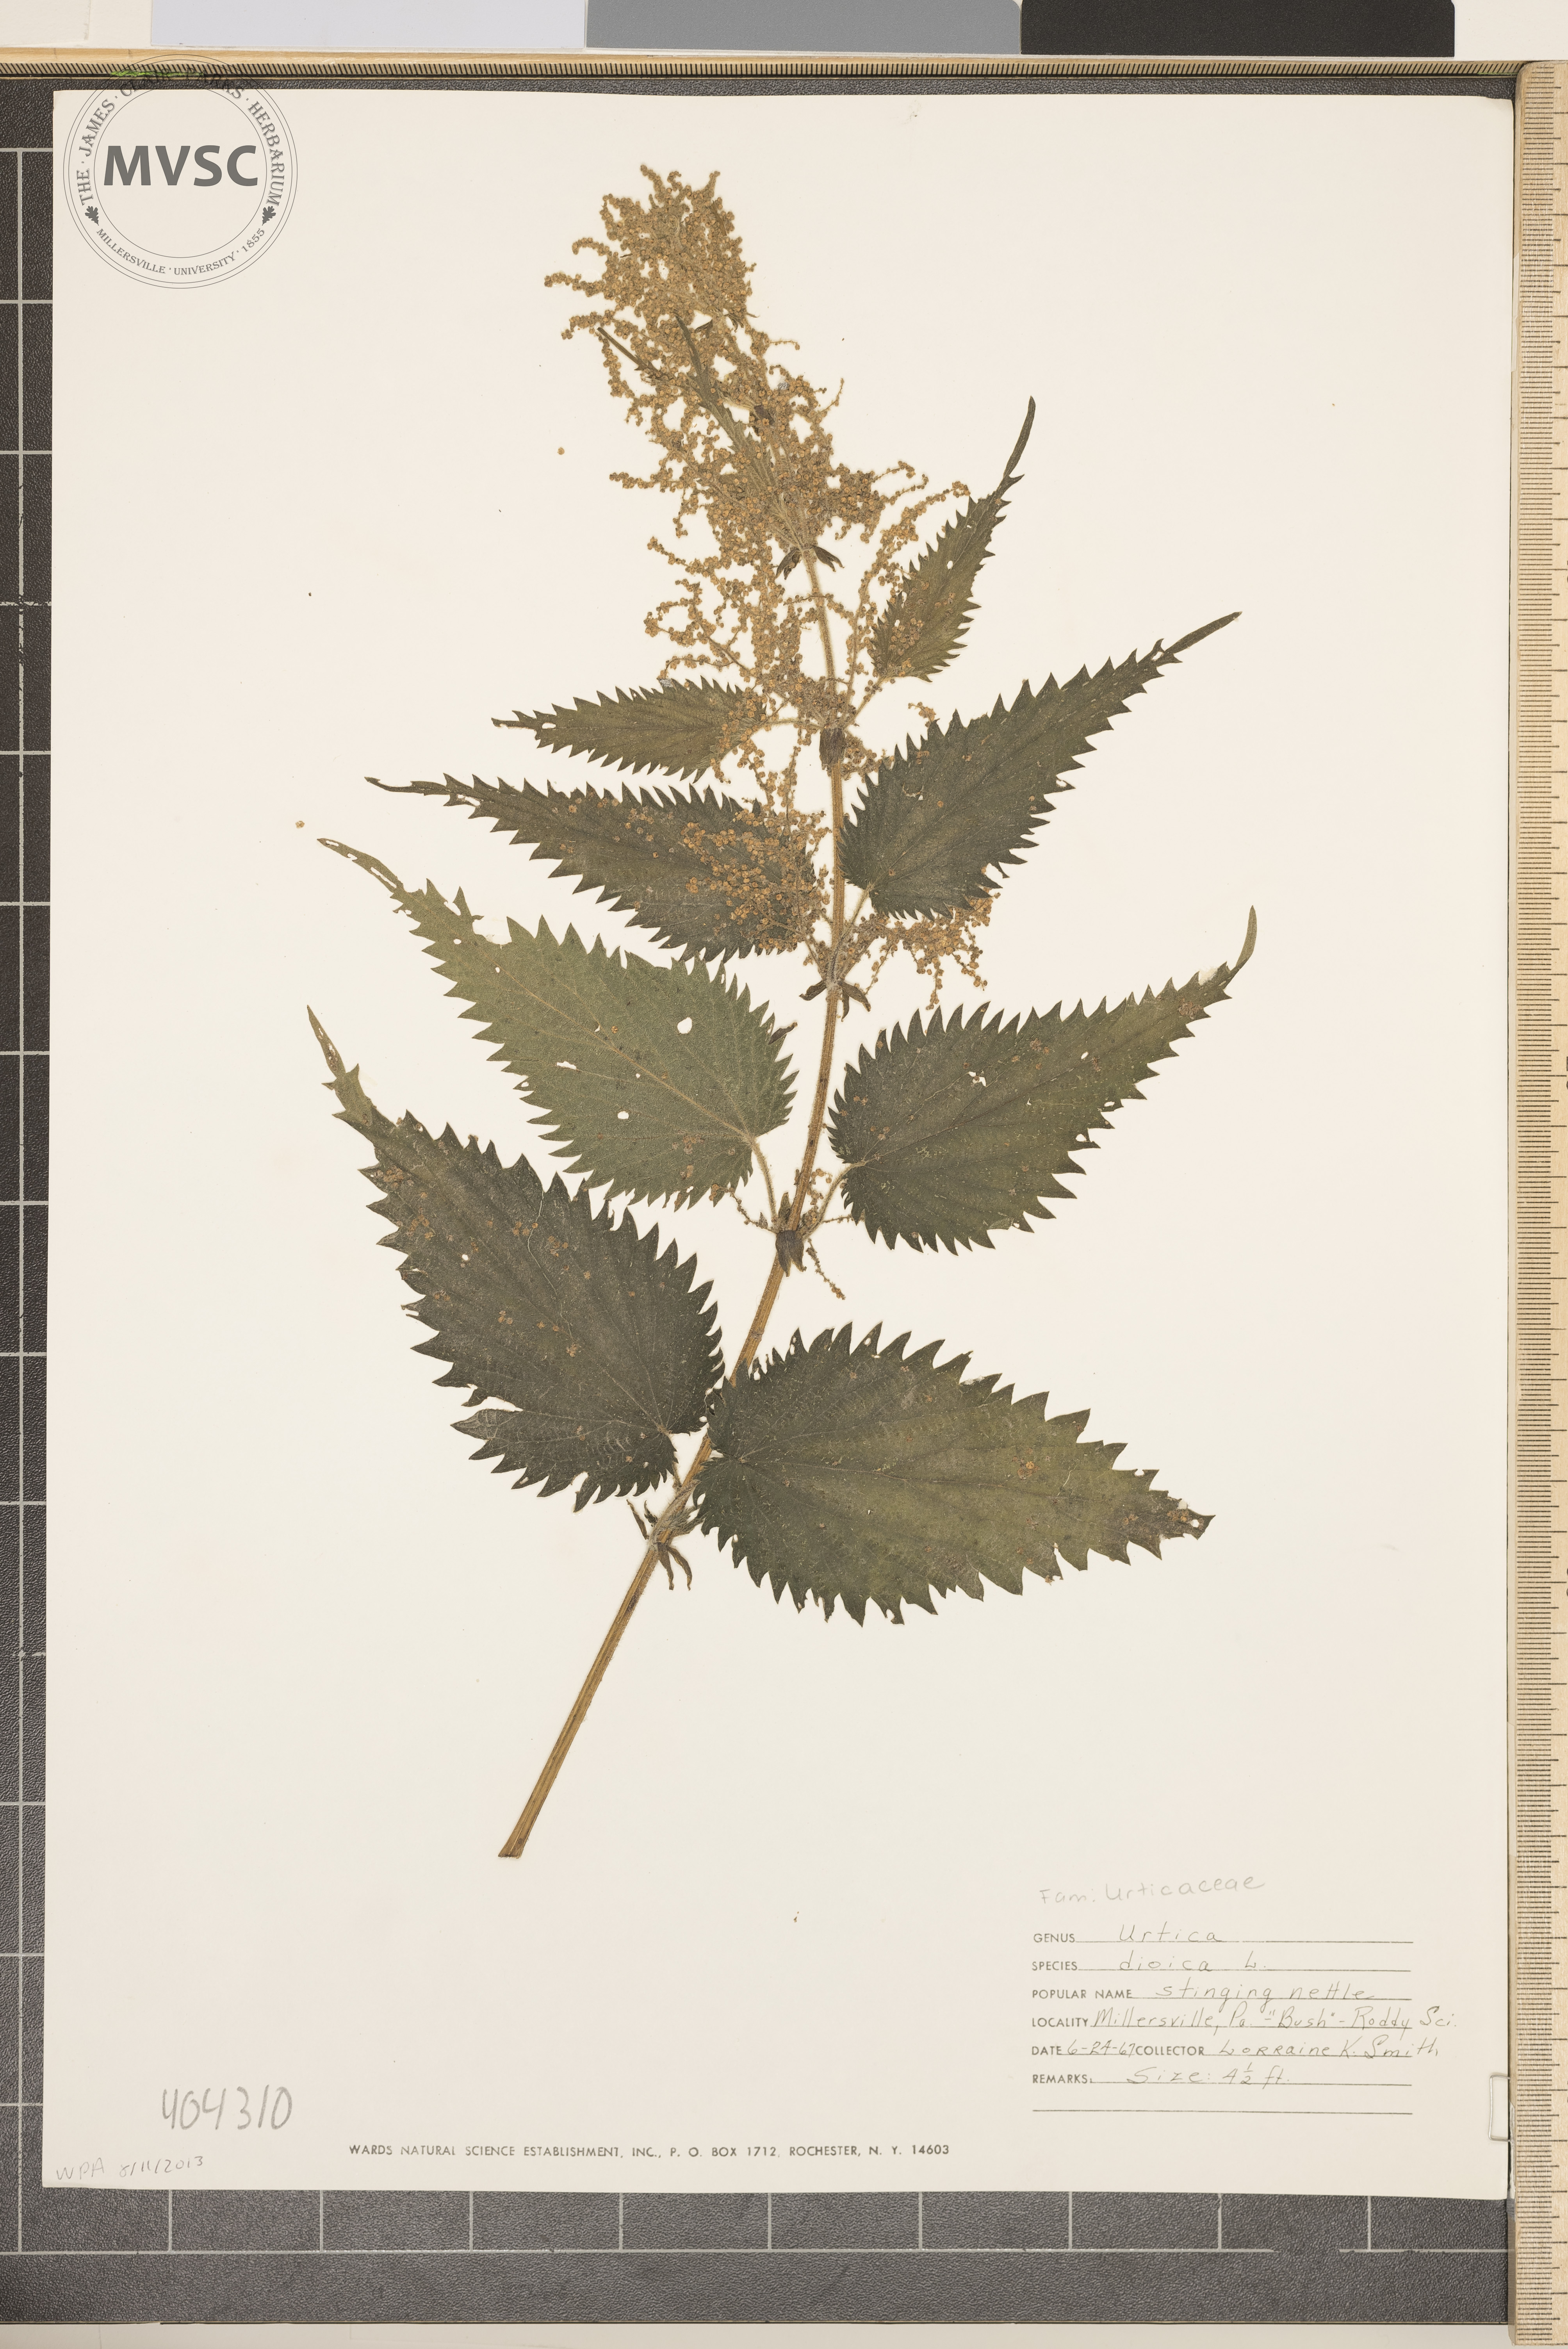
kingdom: Plantae
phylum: Tracheophyta
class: Magnoliopsida
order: Rosales
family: Urticaceae
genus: Urtica
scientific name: Urtica dioica
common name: Stinging nettle
